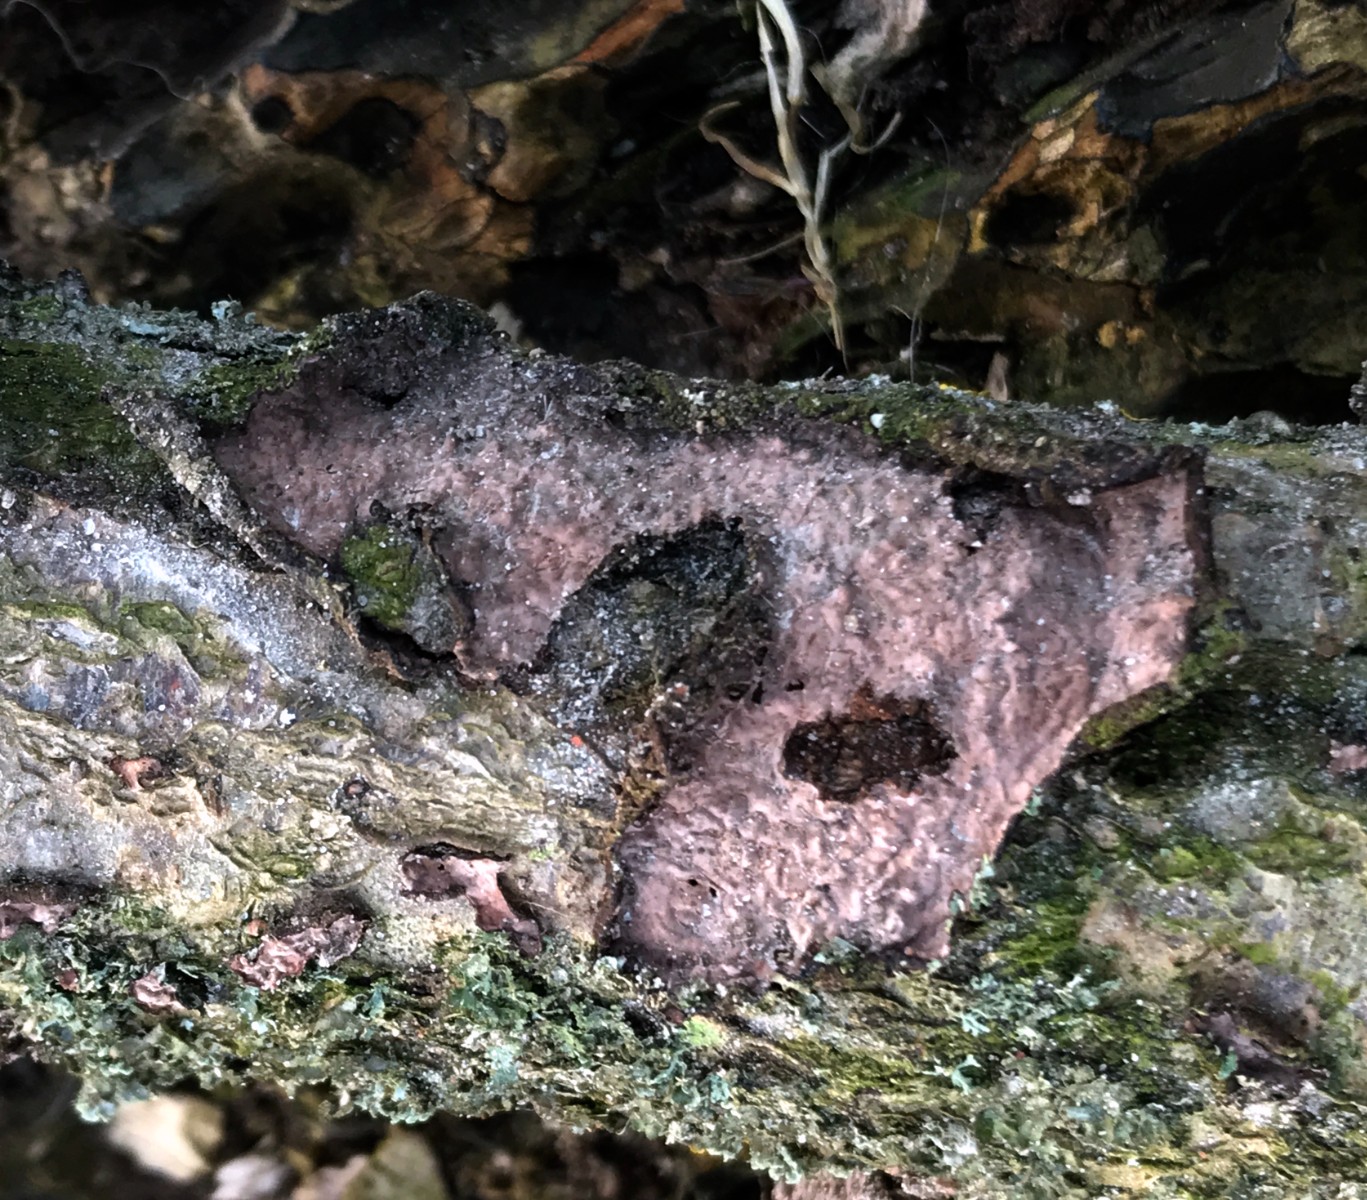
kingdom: Fungi
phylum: Basidiomycota
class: Agaricomycetes
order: Russulales
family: Peniophoraceae
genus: Peniophora
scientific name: Peniophora quercina
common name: ege-voksskind
